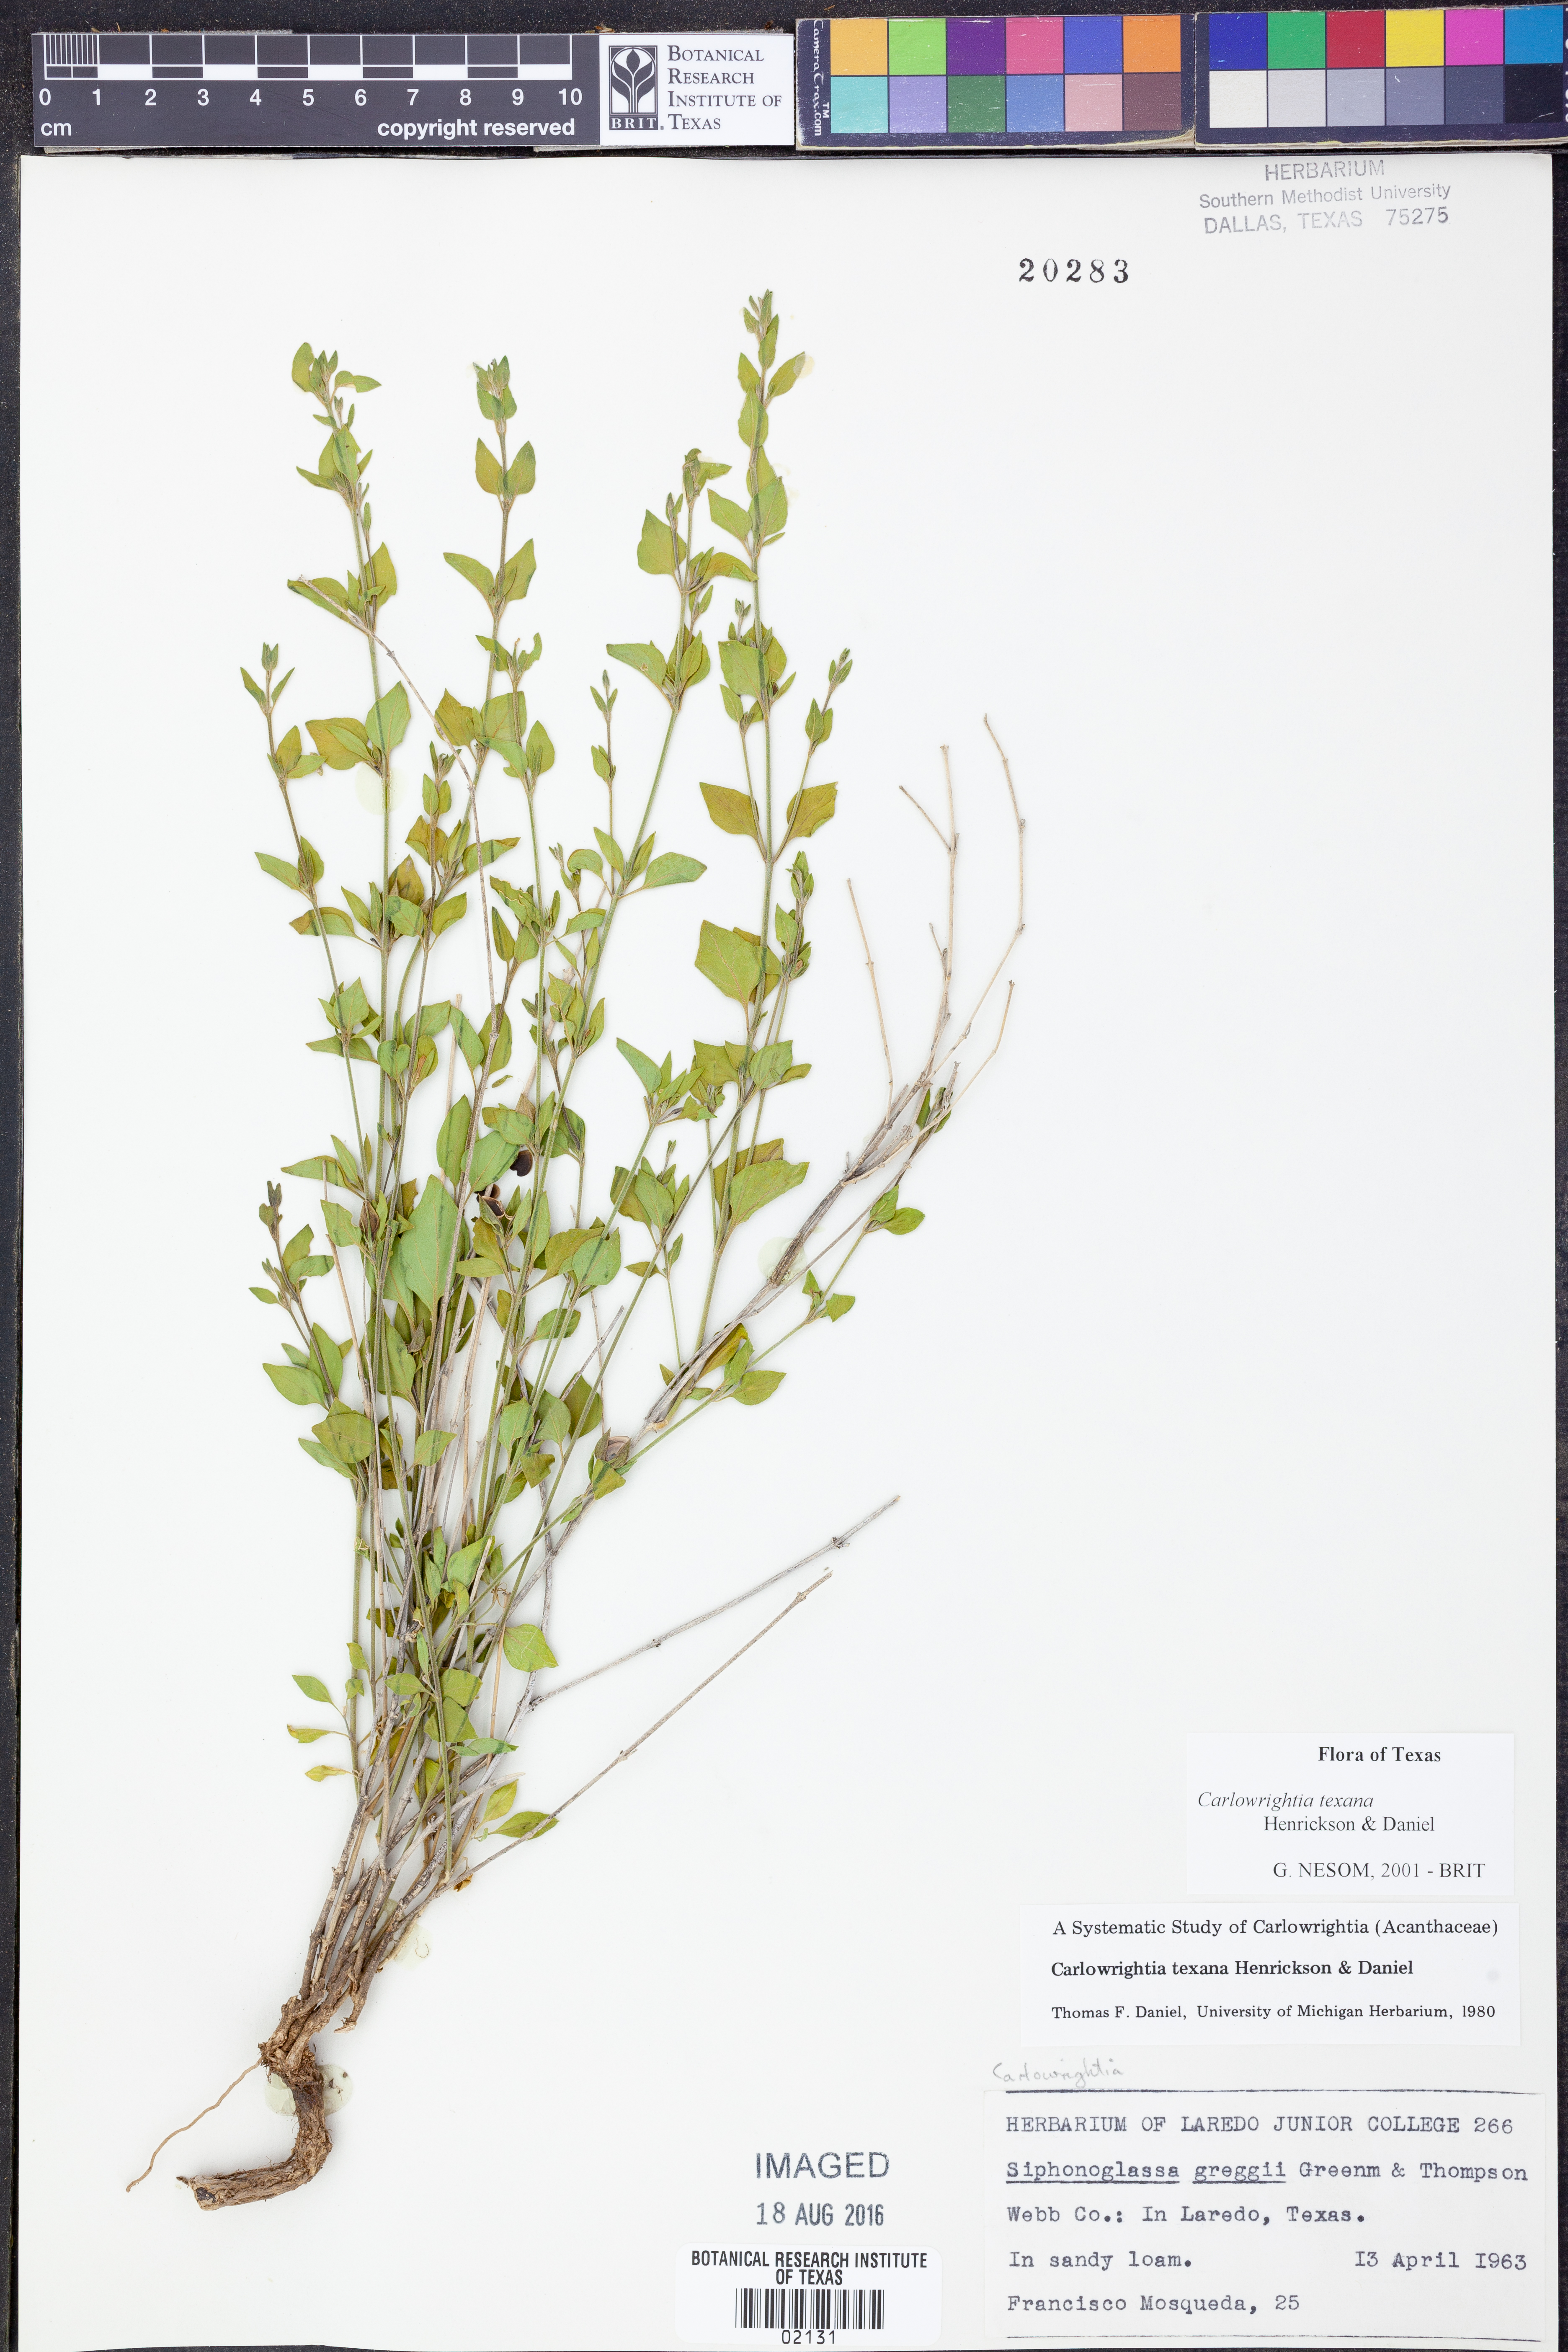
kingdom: Plantae
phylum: Tracheophyta
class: Magnoliopsida
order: Lamiales
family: Acanthaceae
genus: Carlowrightia
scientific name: Carlowrightia texana
